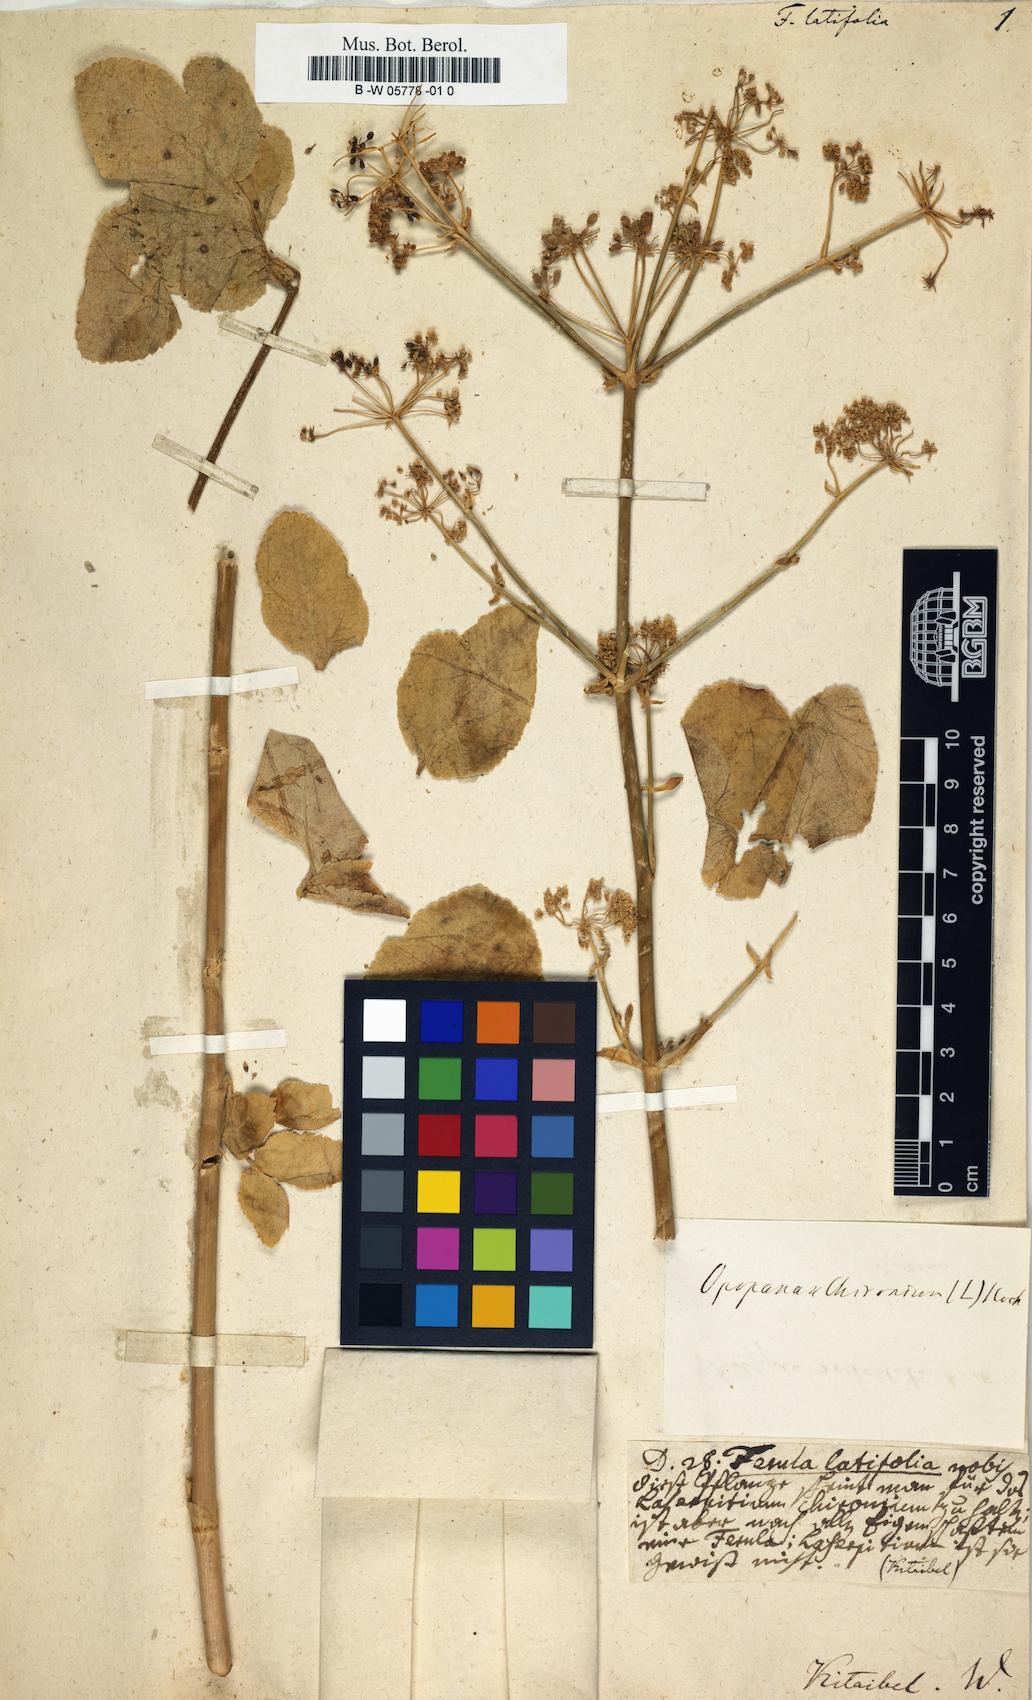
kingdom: Plantae
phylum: Tracheophyta
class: Magnoliopsida
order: Apiales
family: Apiaceae
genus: Ferula
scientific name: Ferula gigantea
